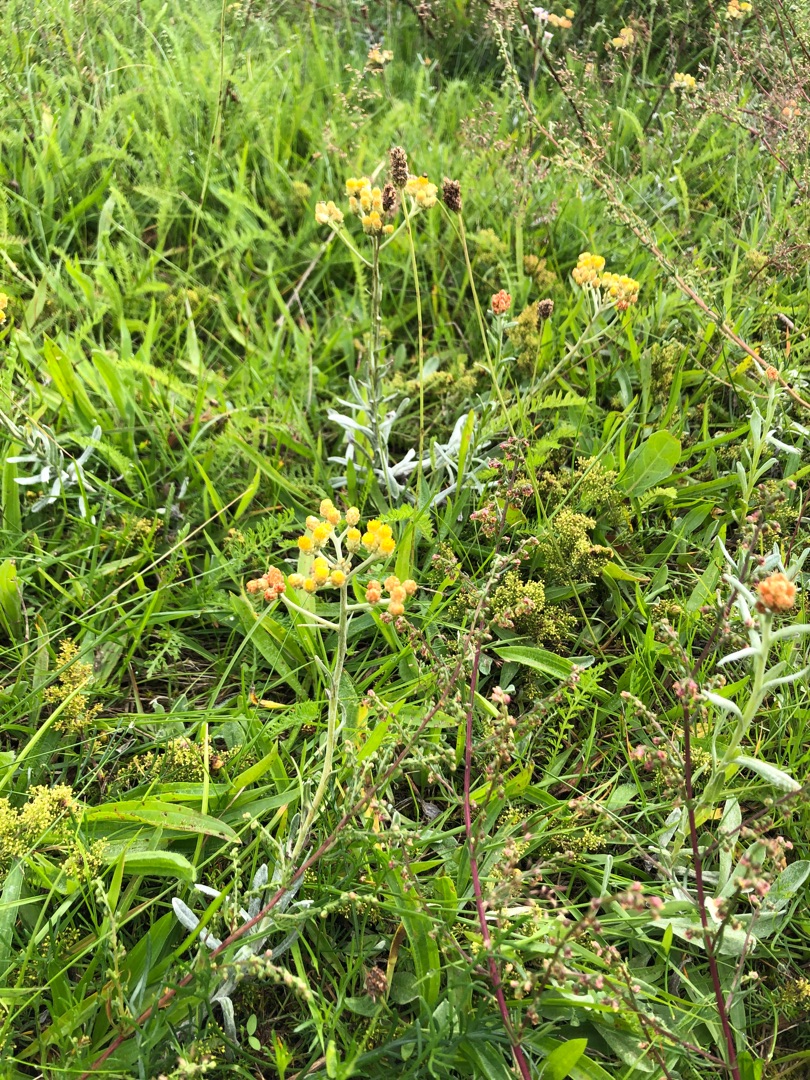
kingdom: Plantae
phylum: Tracheophyta
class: Magnoliopsida
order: Asterales
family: Asteraceae
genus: Helichrysum
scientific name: Helichrysum arenarium
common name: Gul evighedsblomst
